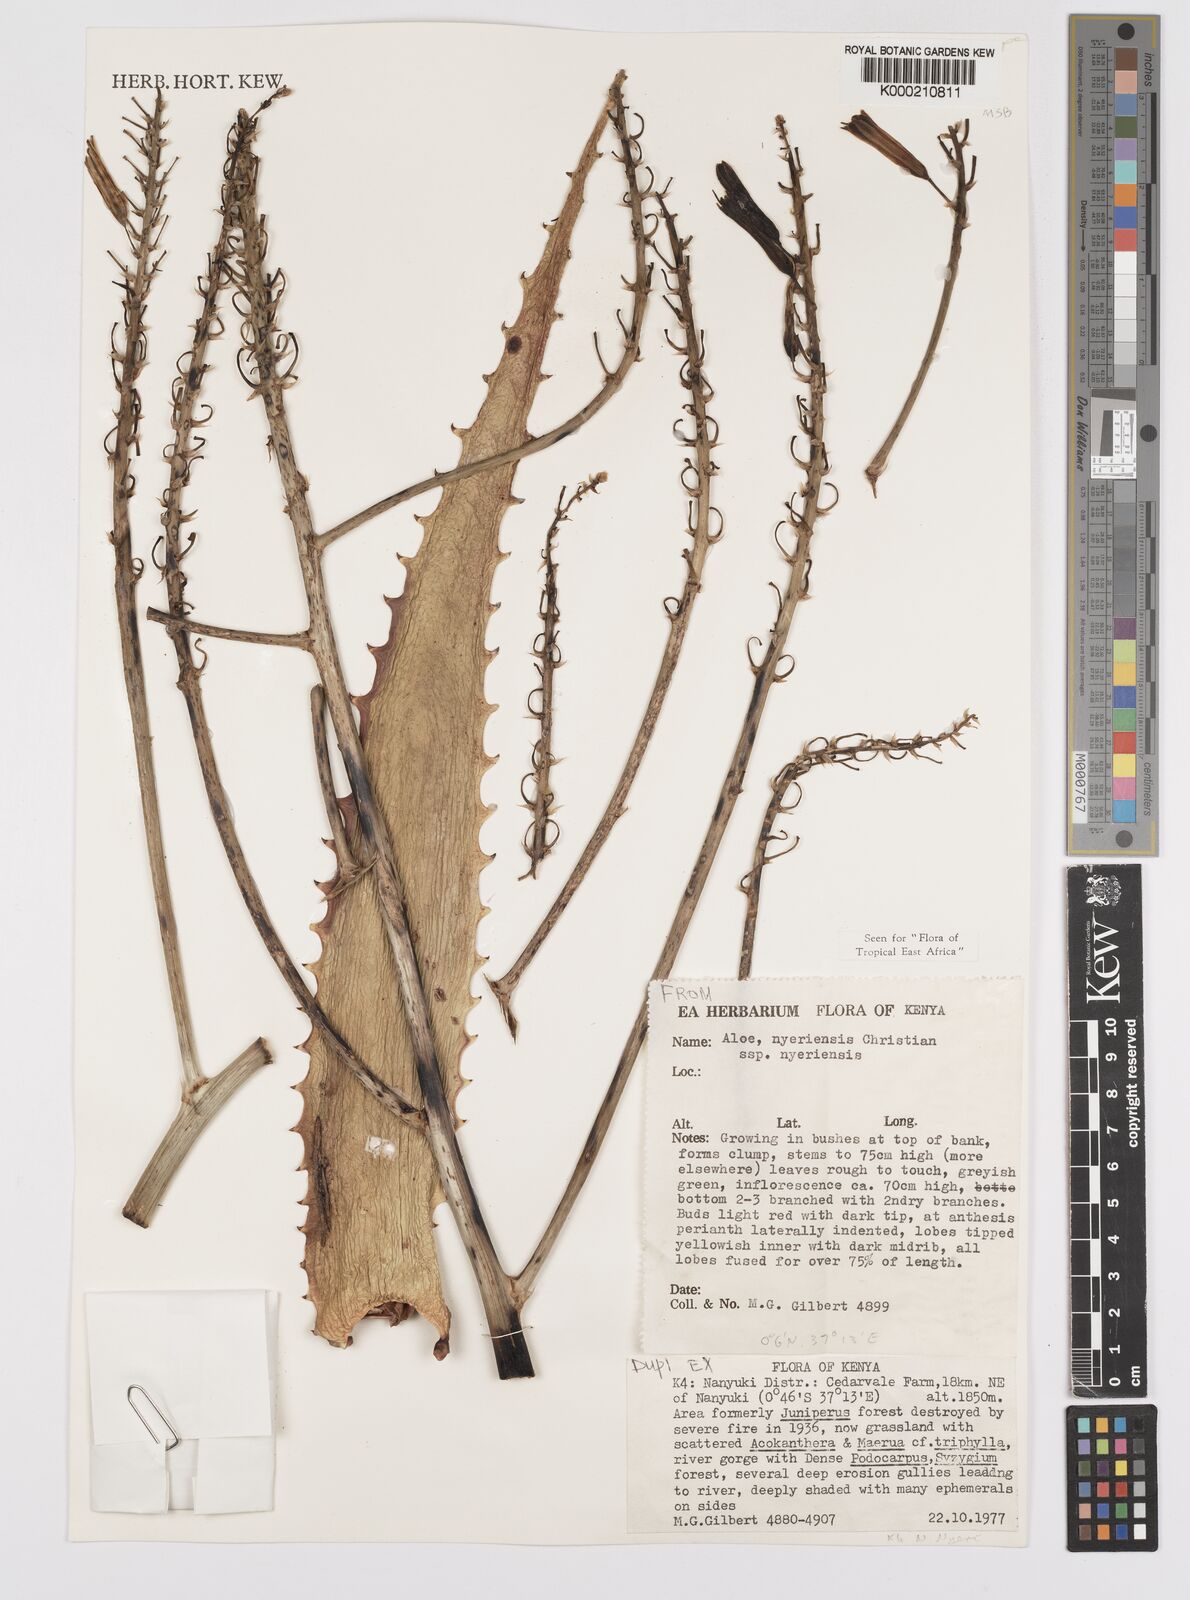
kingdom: Plantae
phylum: Tracheophyta
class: Liliopsida
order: Asparagales
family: Asphodelaceae
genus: Aloe
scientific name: Aloe nyeriensis
